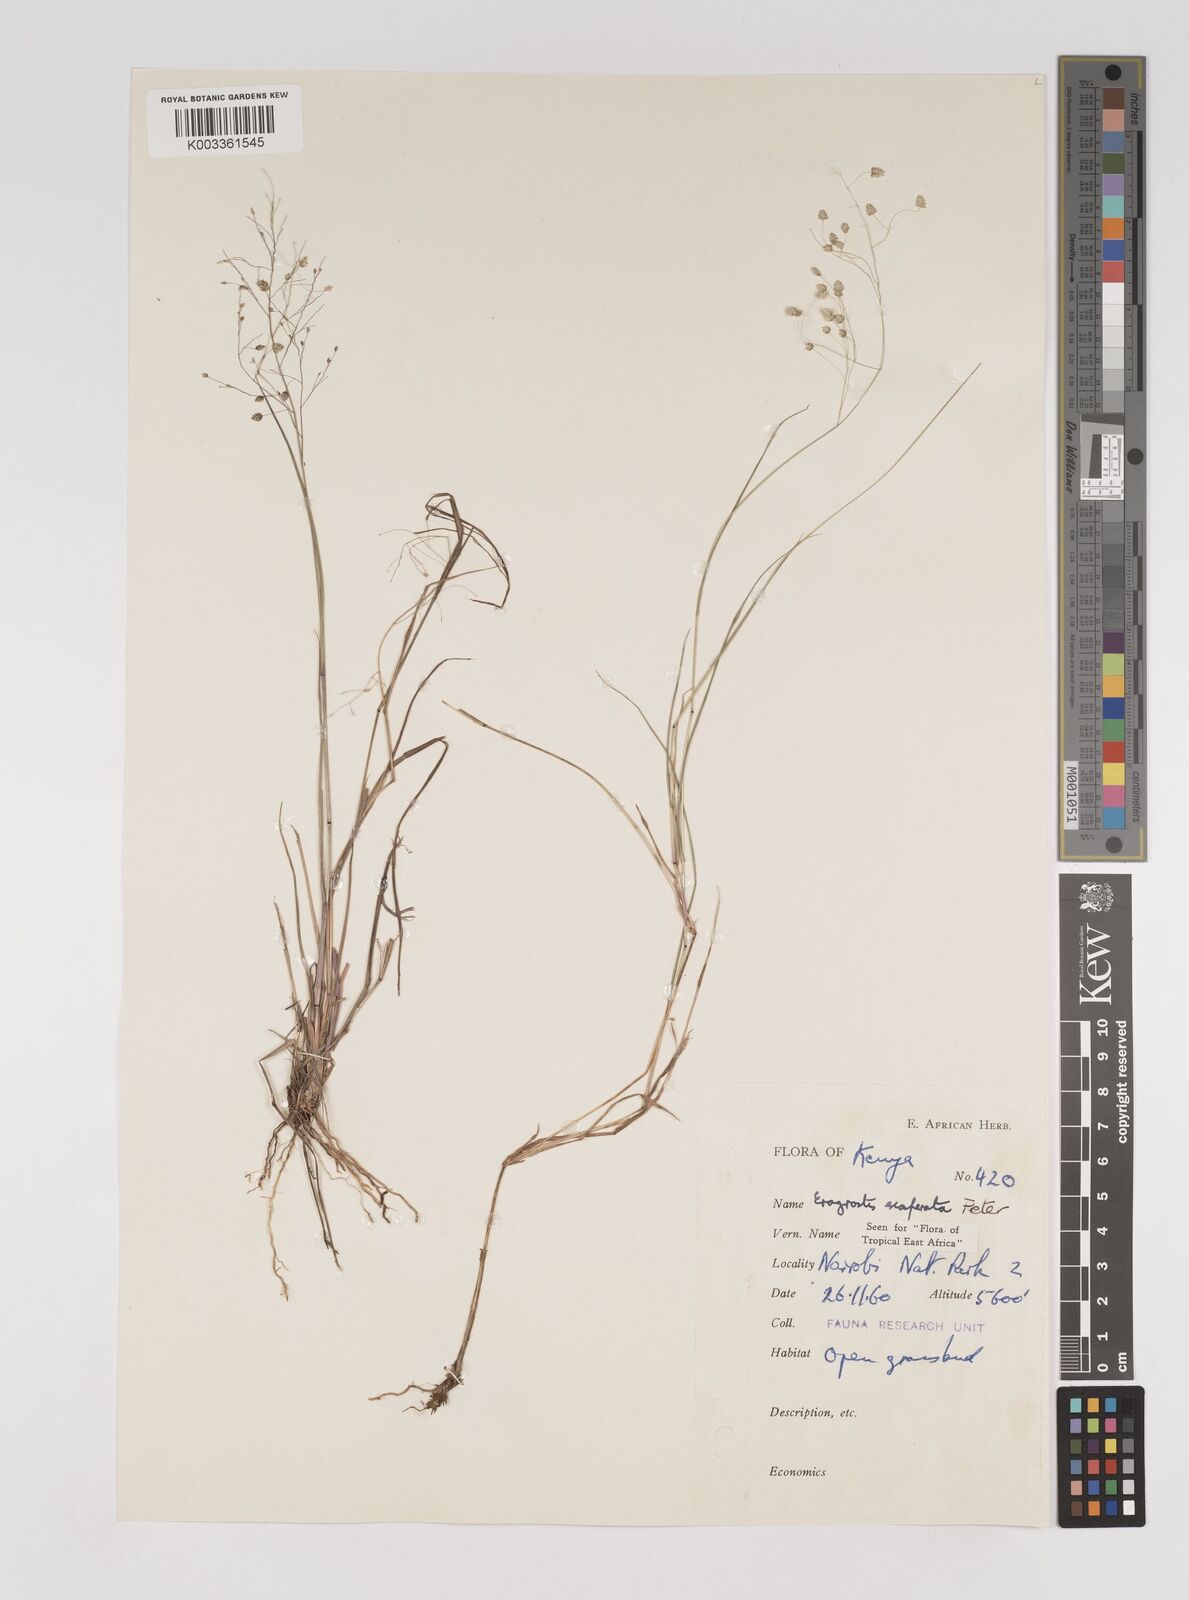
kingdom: Plantae
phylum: Tracheophyta
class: Liliopsida
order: Poales
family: Poaceae
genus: Eragrostis
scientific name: Eragrostis exasperata
